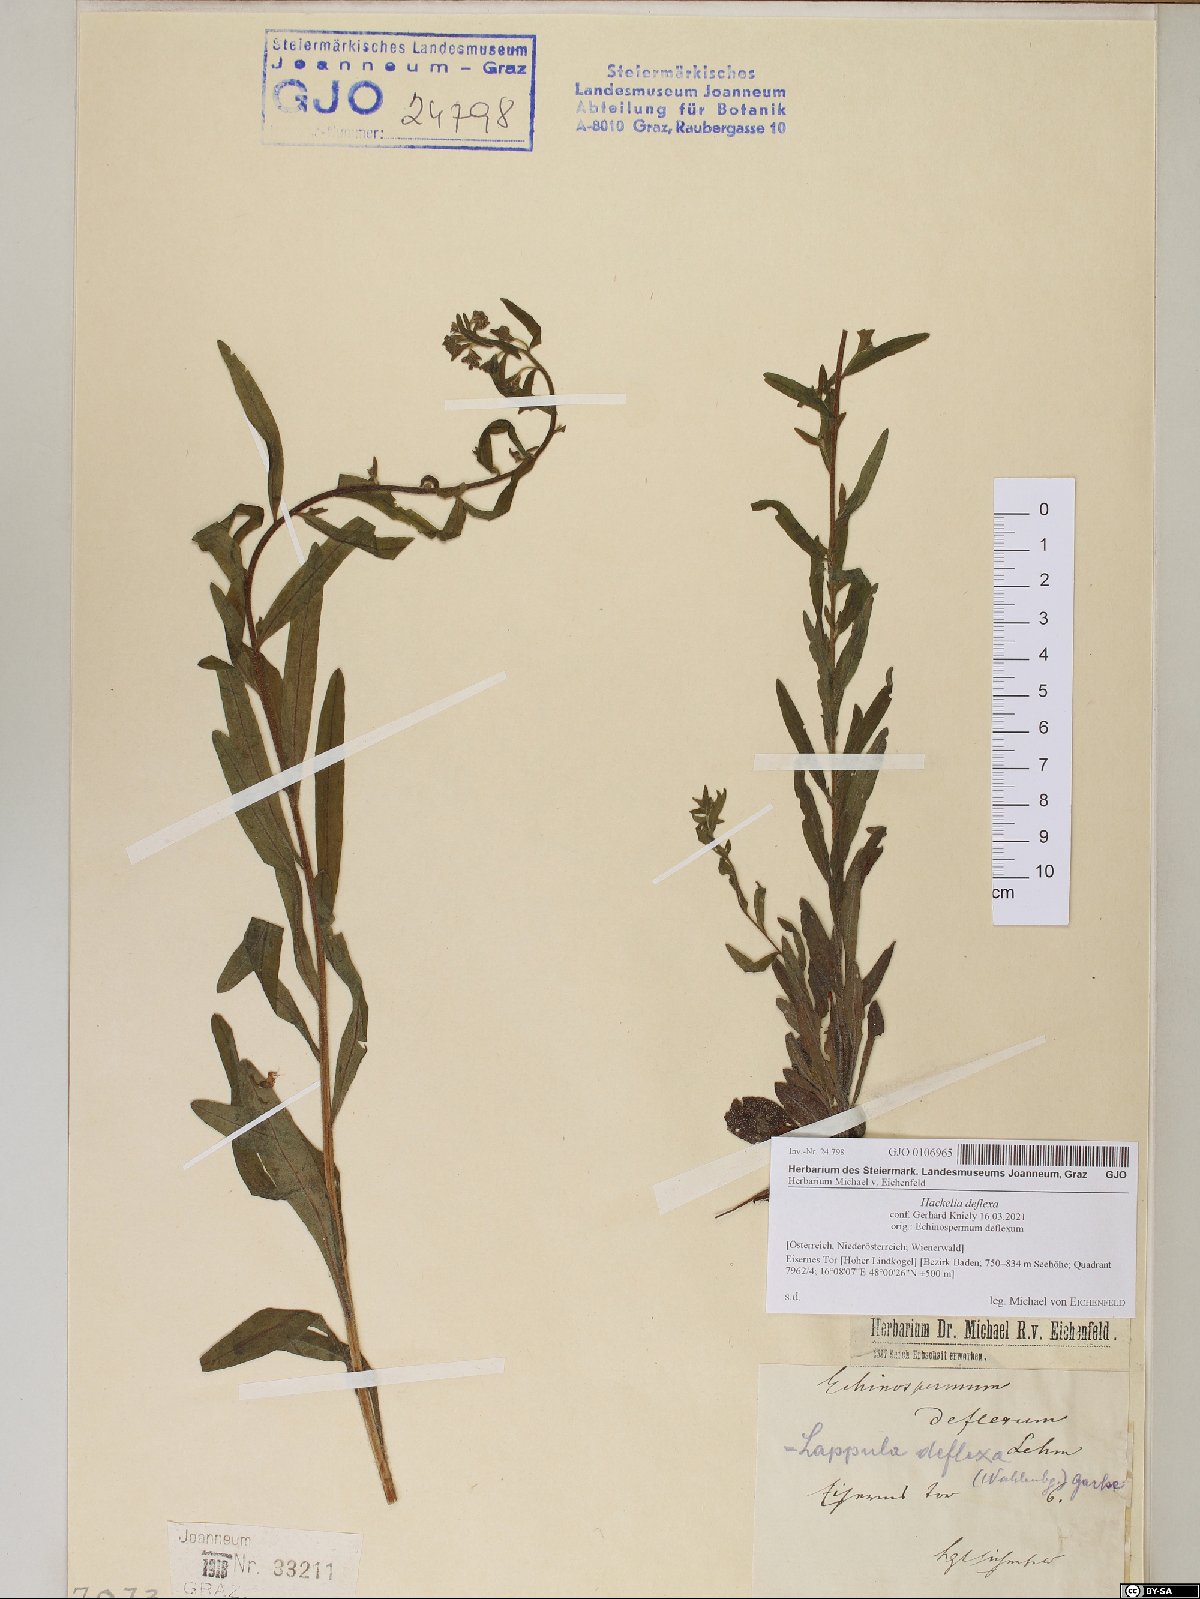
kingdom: Plantae
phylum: Tracheophyta
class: Magnoliopsida
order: Boraginales
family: Boraginaceae
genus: Hackelia
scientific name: Hackelia deflexa
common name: Nodding stickseed
